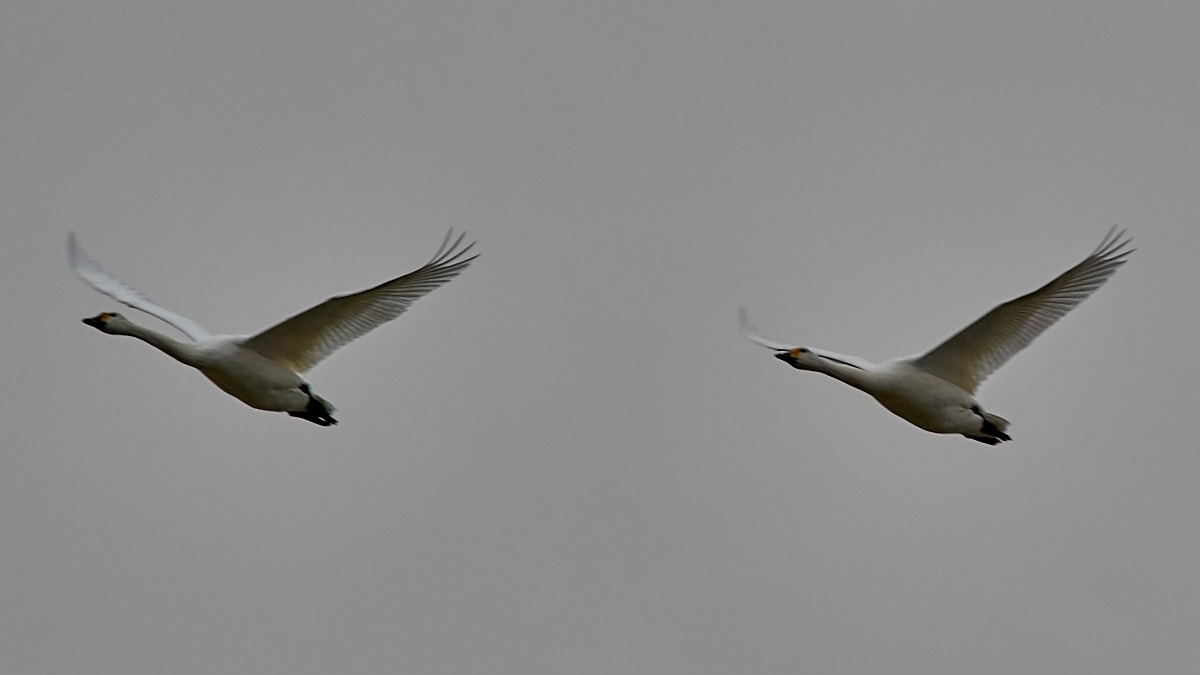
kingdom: Animalia
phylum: Chordata
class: Aves
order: Anseriformes
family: Anatidae
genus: Cygnus
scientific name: Cygnus columbianus
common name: Pibesvane
